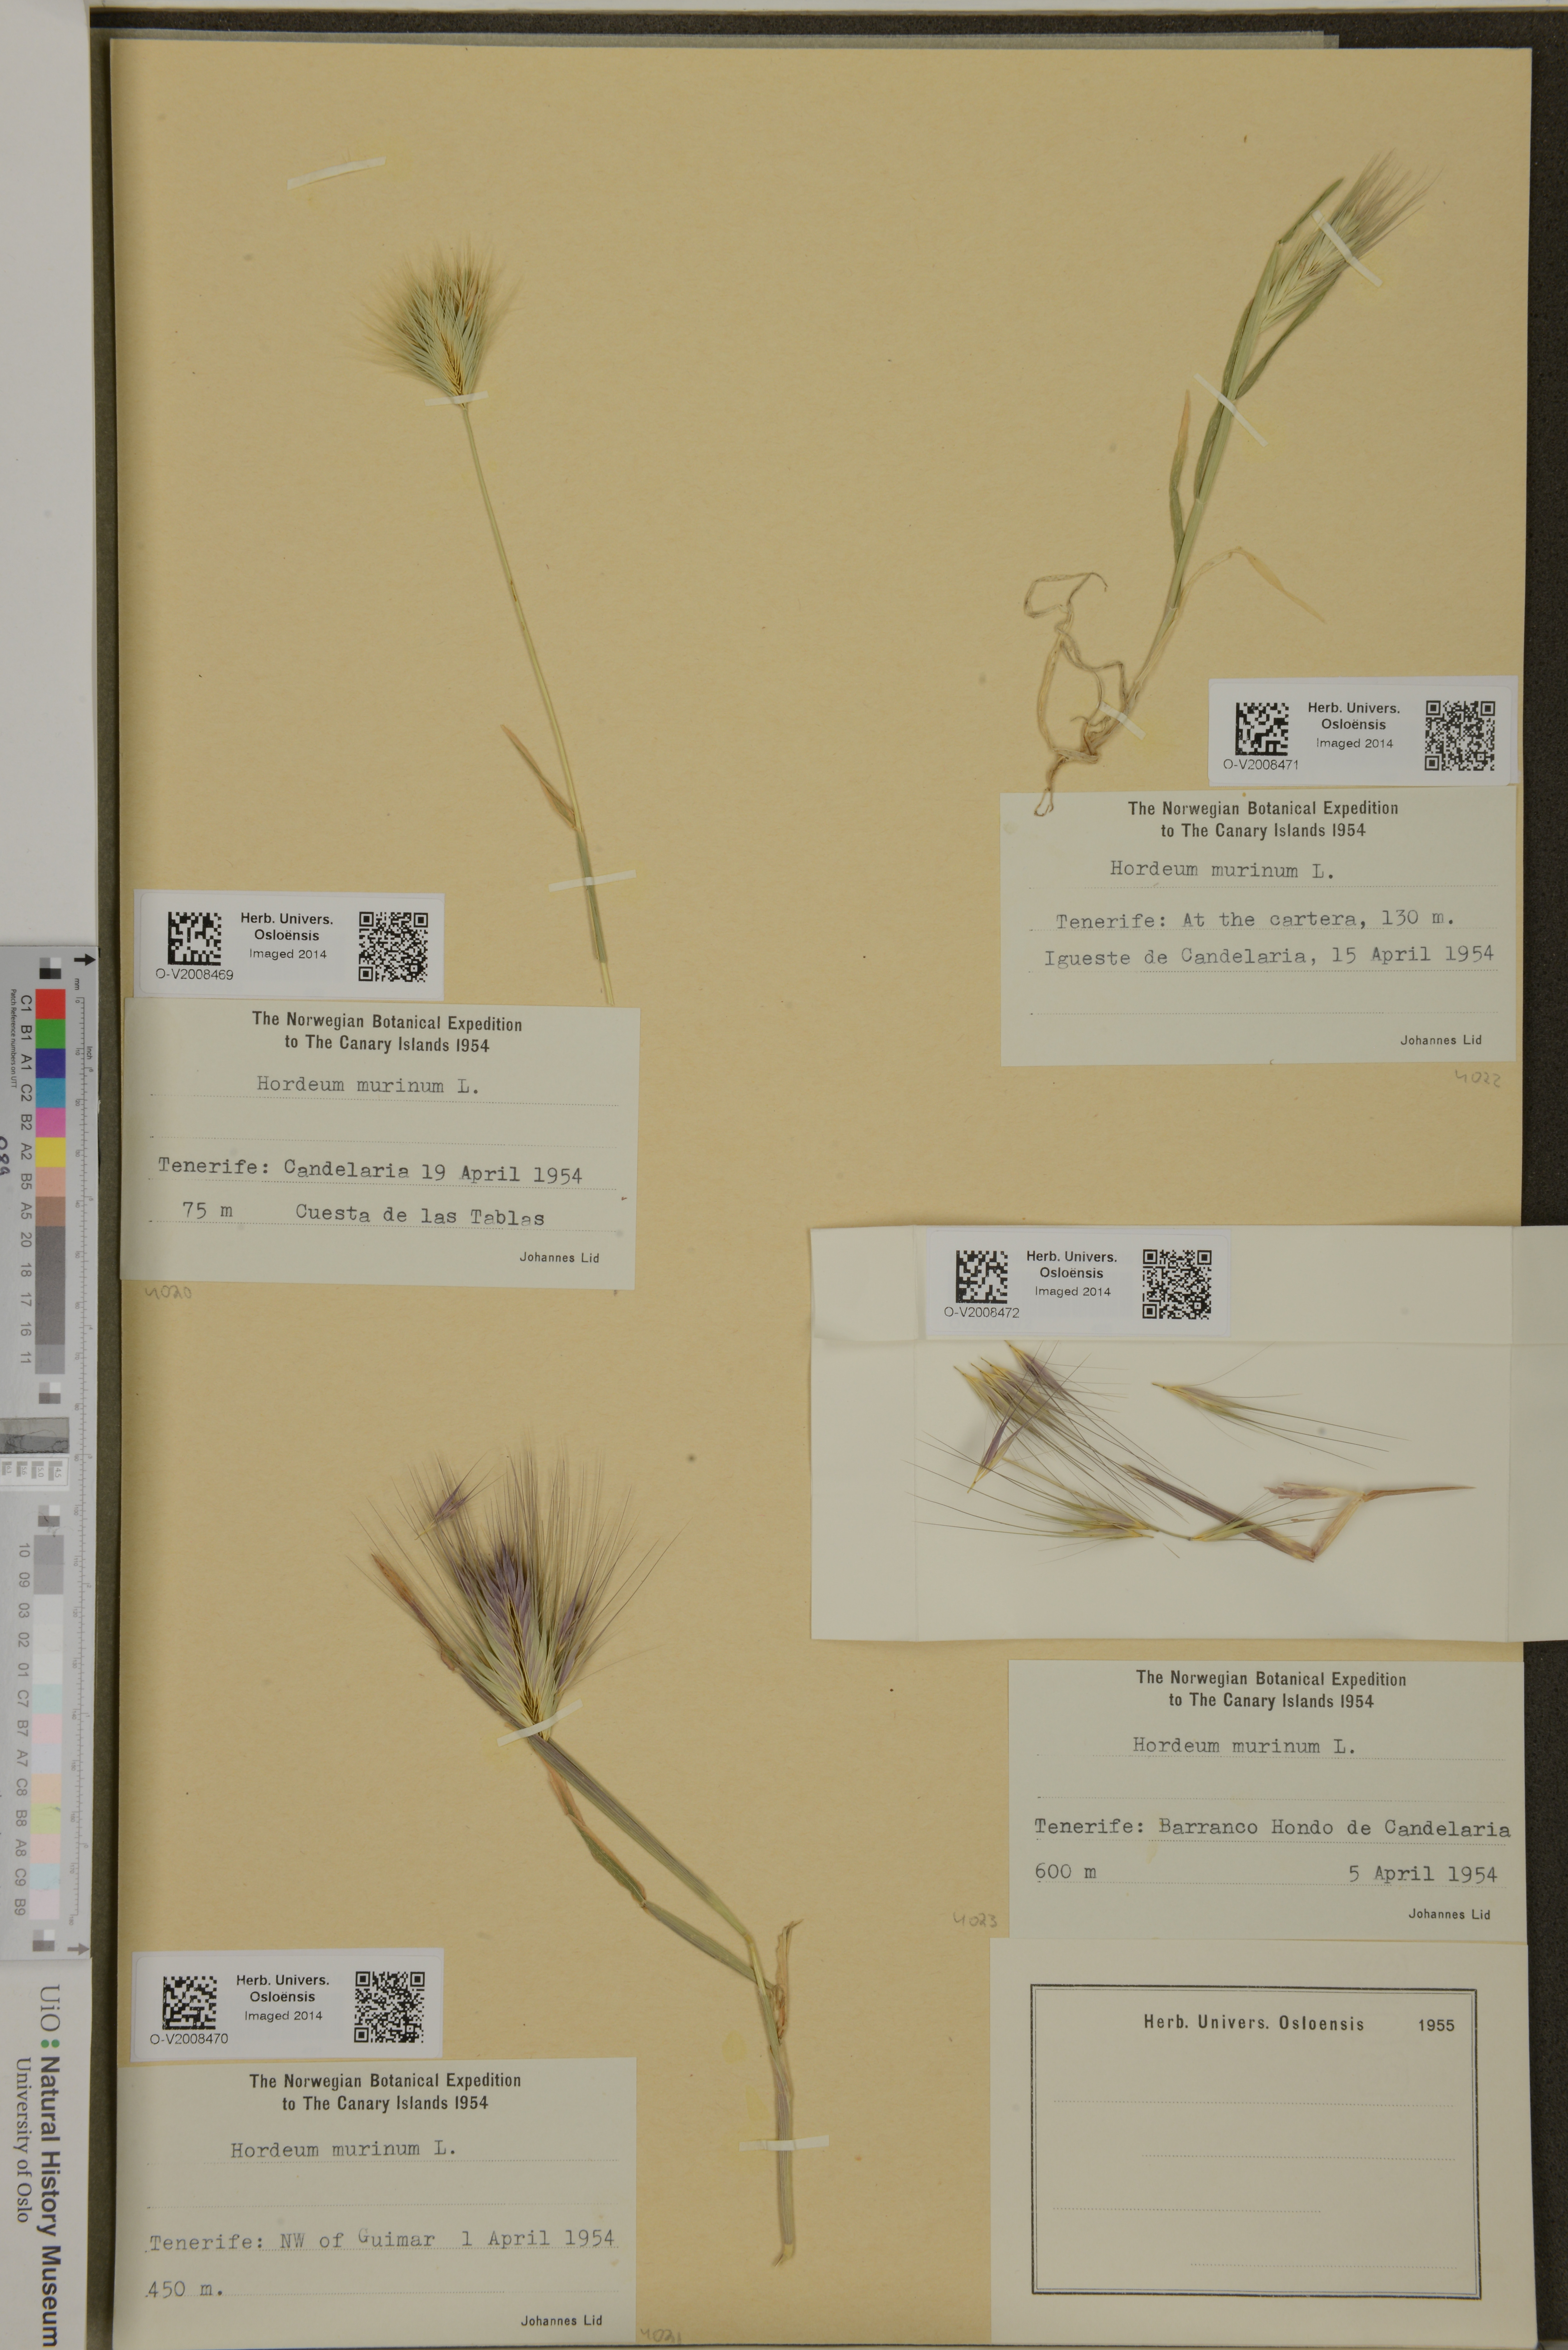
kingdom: Plantae
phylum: Tracheophyta
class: Liliopsida
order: Poales
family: Poaceae
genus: Hordeum
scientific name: Hordeum murinum
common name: Wall barley
